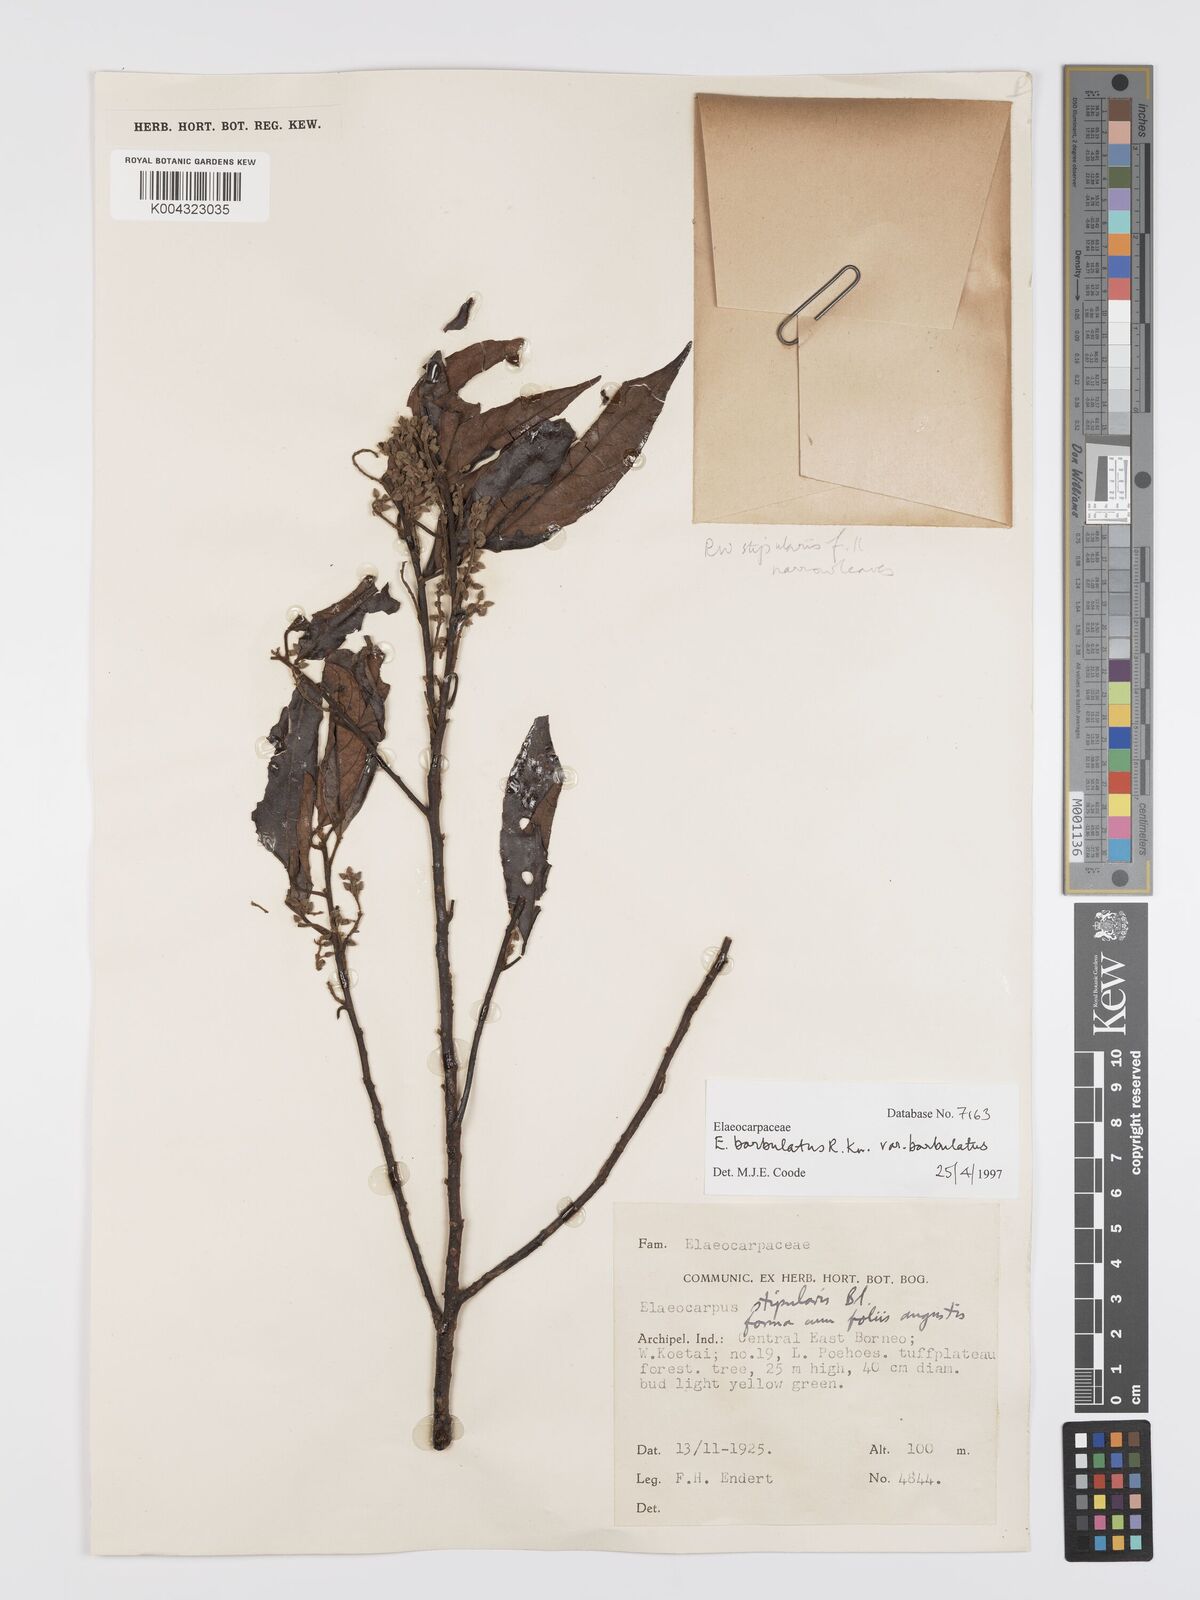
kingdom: Plantae
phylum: Tracheophyta
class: Magnoliopsida
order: Oxalidales
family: Elaeocarpaceae
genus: Elaeocarpus
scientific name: Elaeocarpus barbulatus
